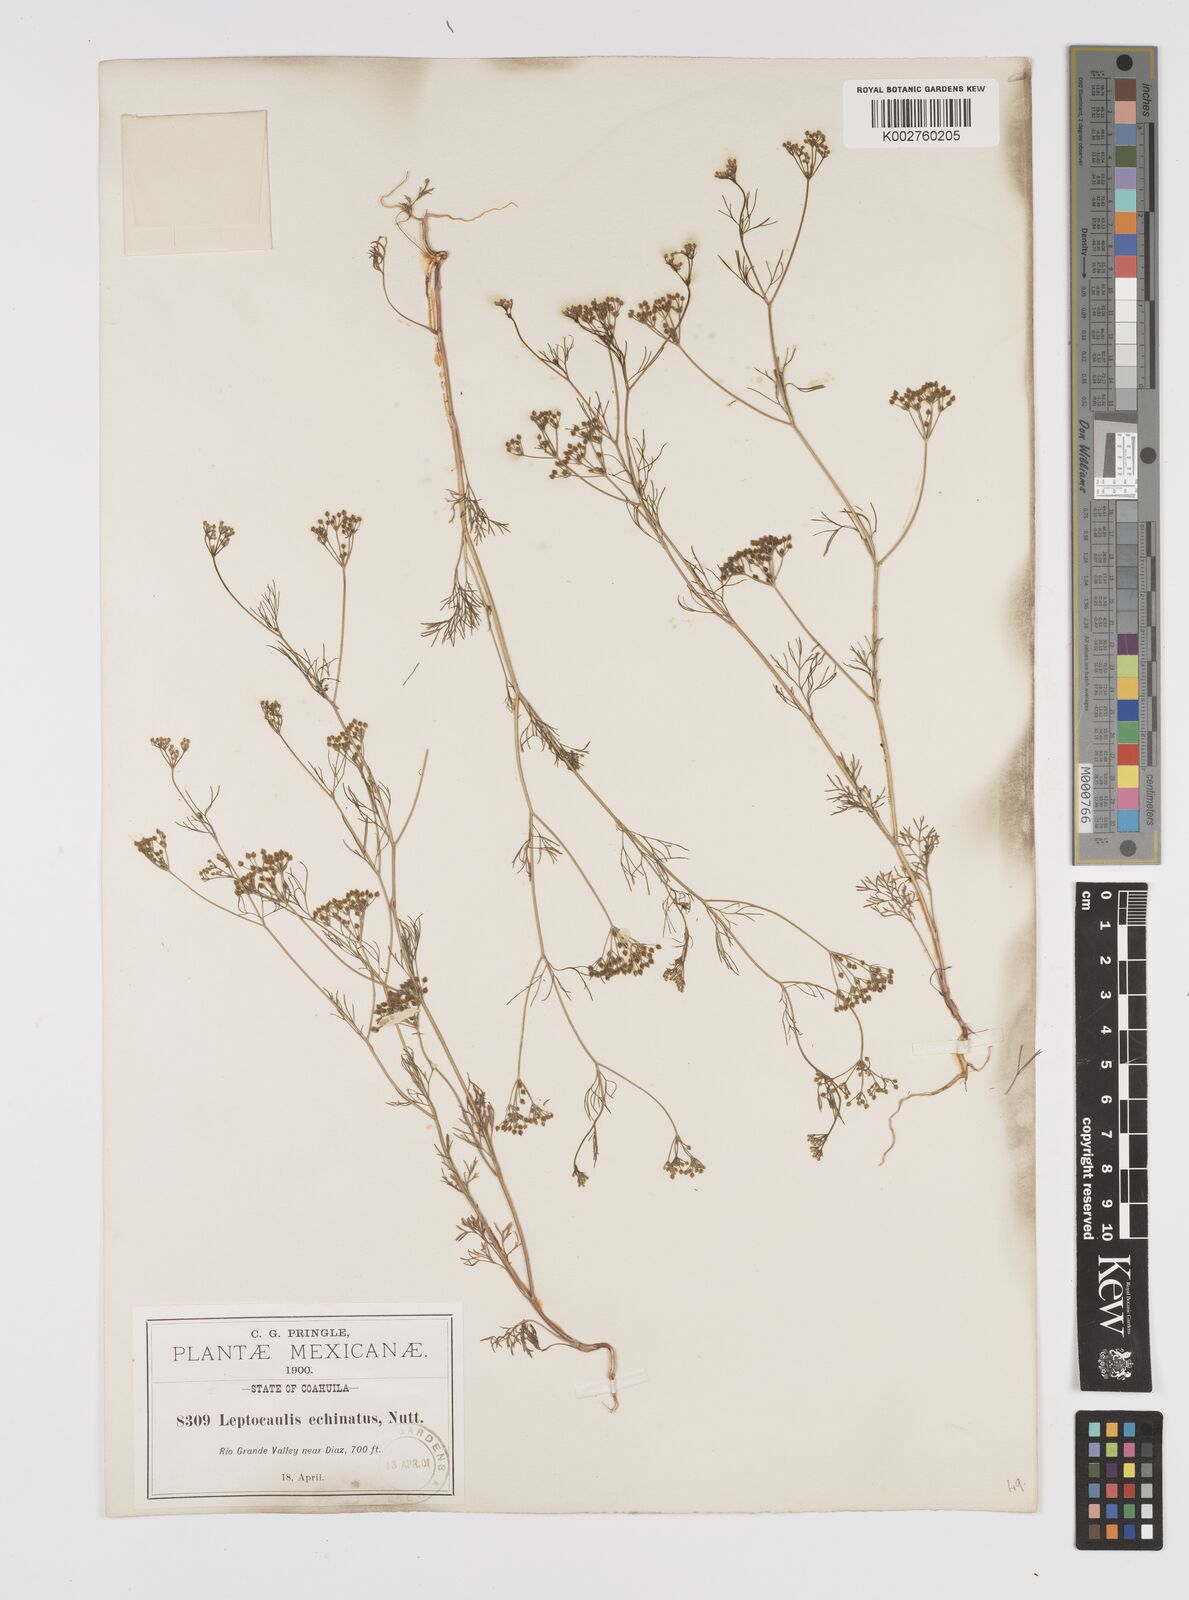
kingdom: Plantae
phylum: Tracheophyta
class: Magnoliopsida
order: Apiales
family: Apiaceae
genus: Spermolepis
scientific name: Spermolepis echinata
